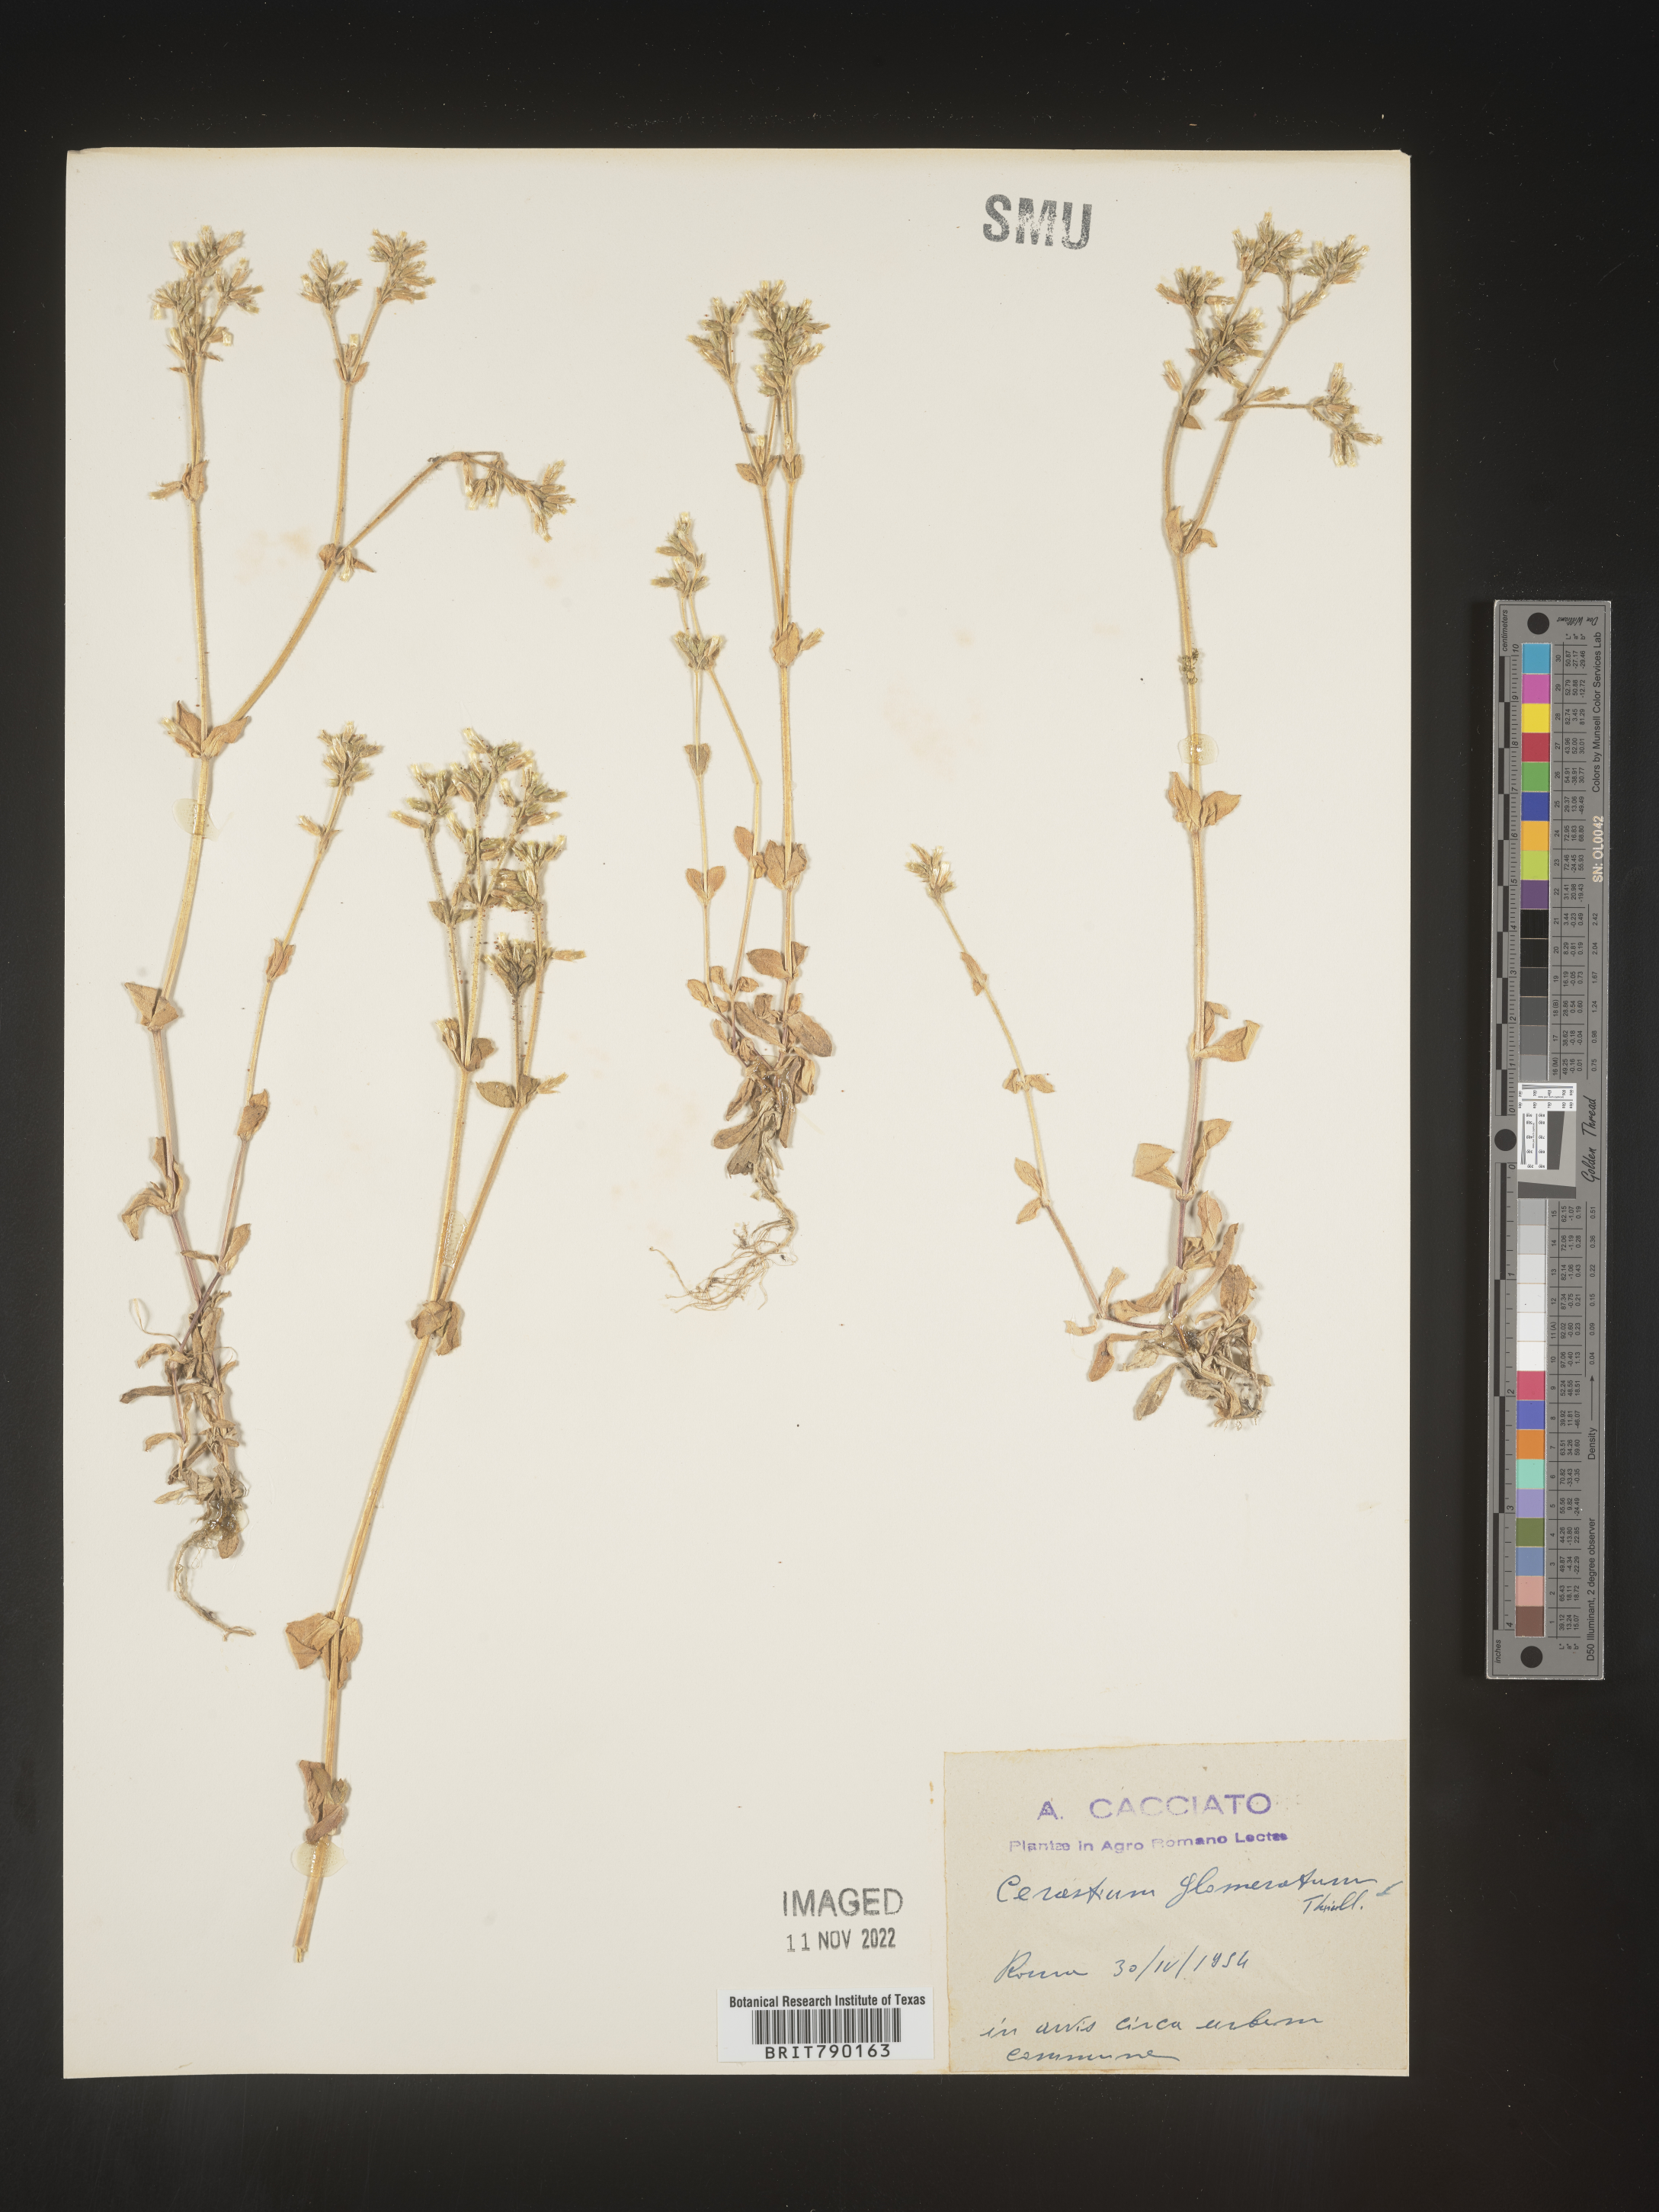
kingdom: Plantae
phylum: Tracheophyta
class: Magnoliopsida
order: Caryophyllales
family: Caryophyllaceae
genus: Cerastium
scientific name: Cerastium
